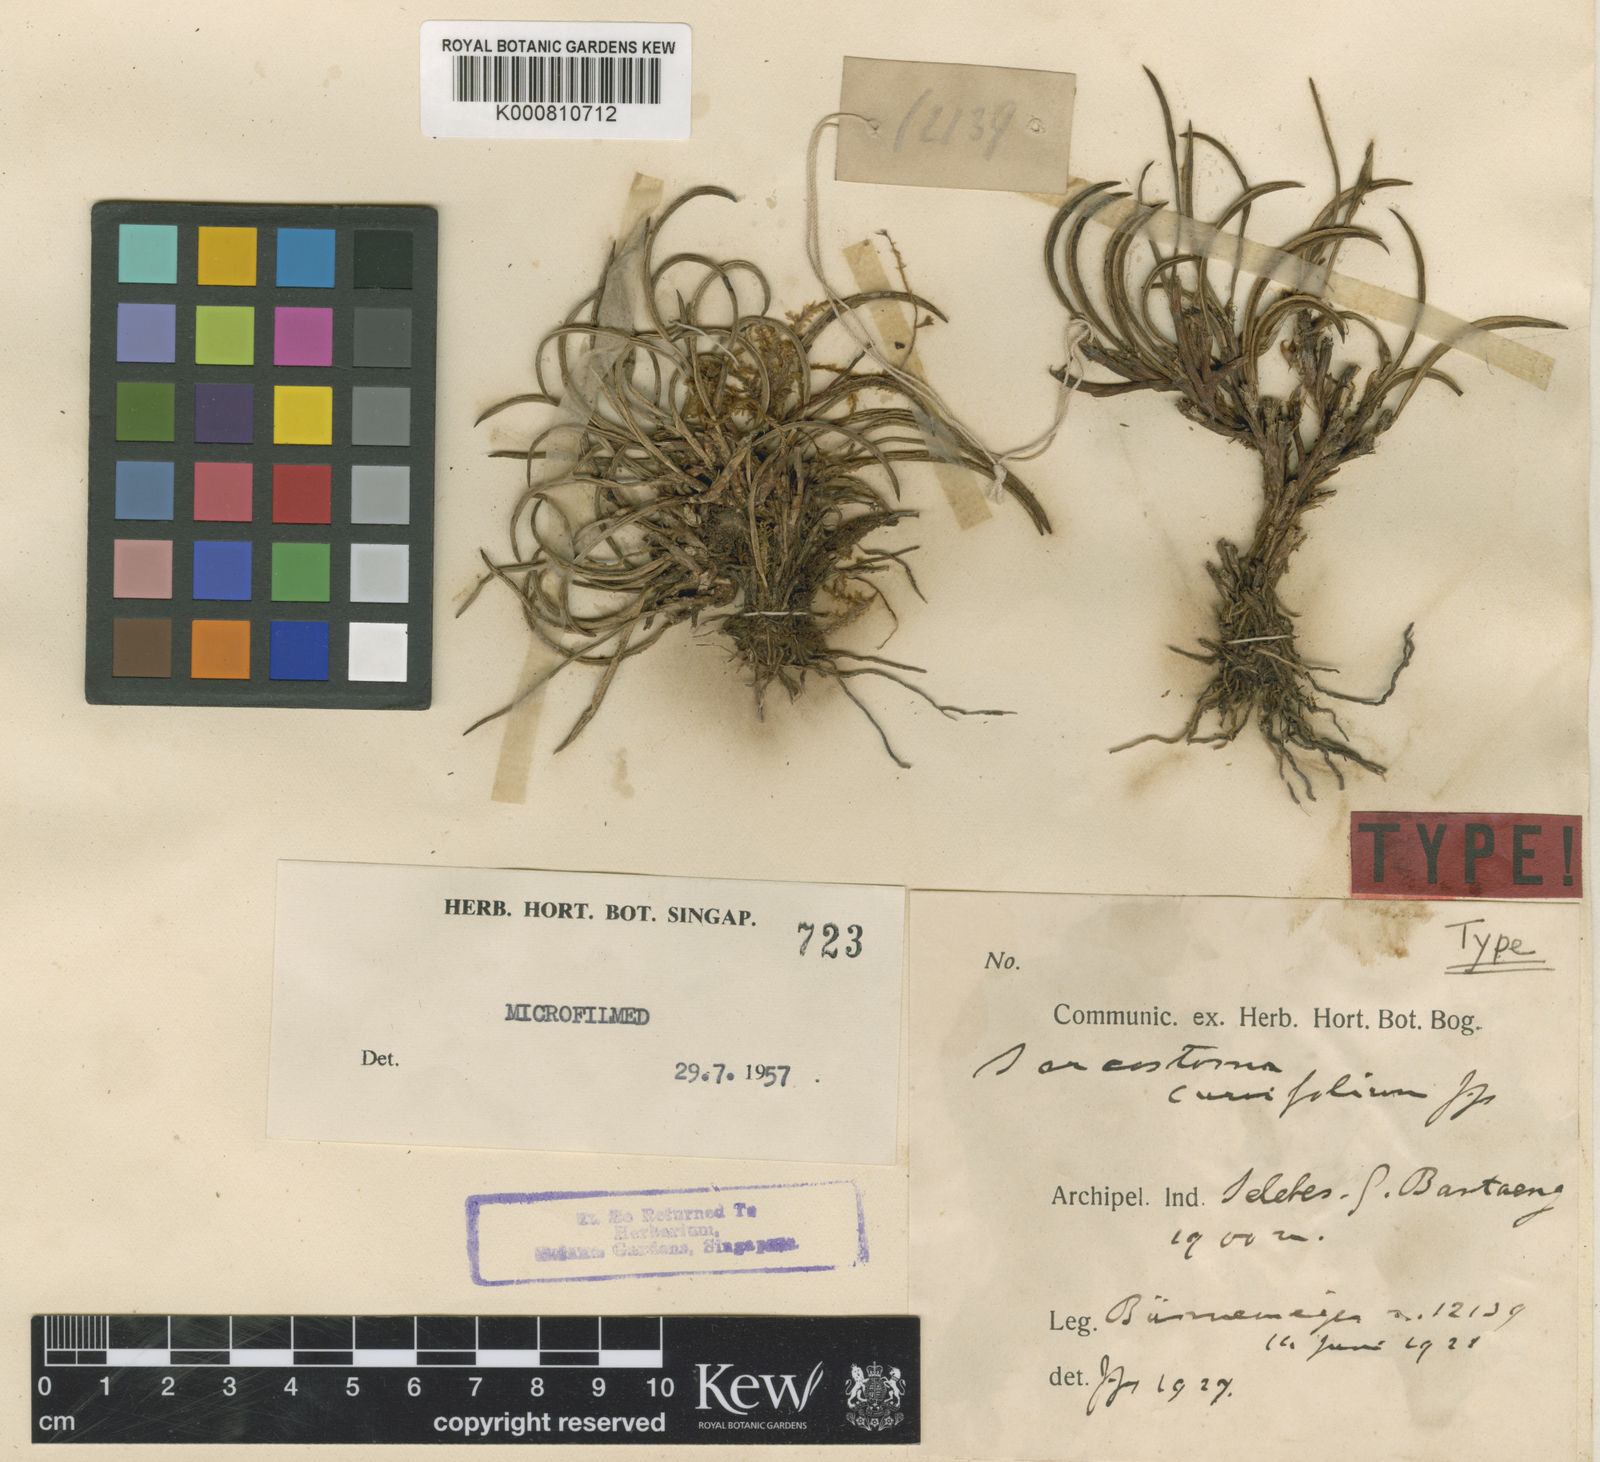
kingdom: Plantae
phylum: Tracheophyta
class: Liliopsida
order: Asparagales
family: Orchidaceae
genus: Ceratostylis
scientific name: Ceratostylis
